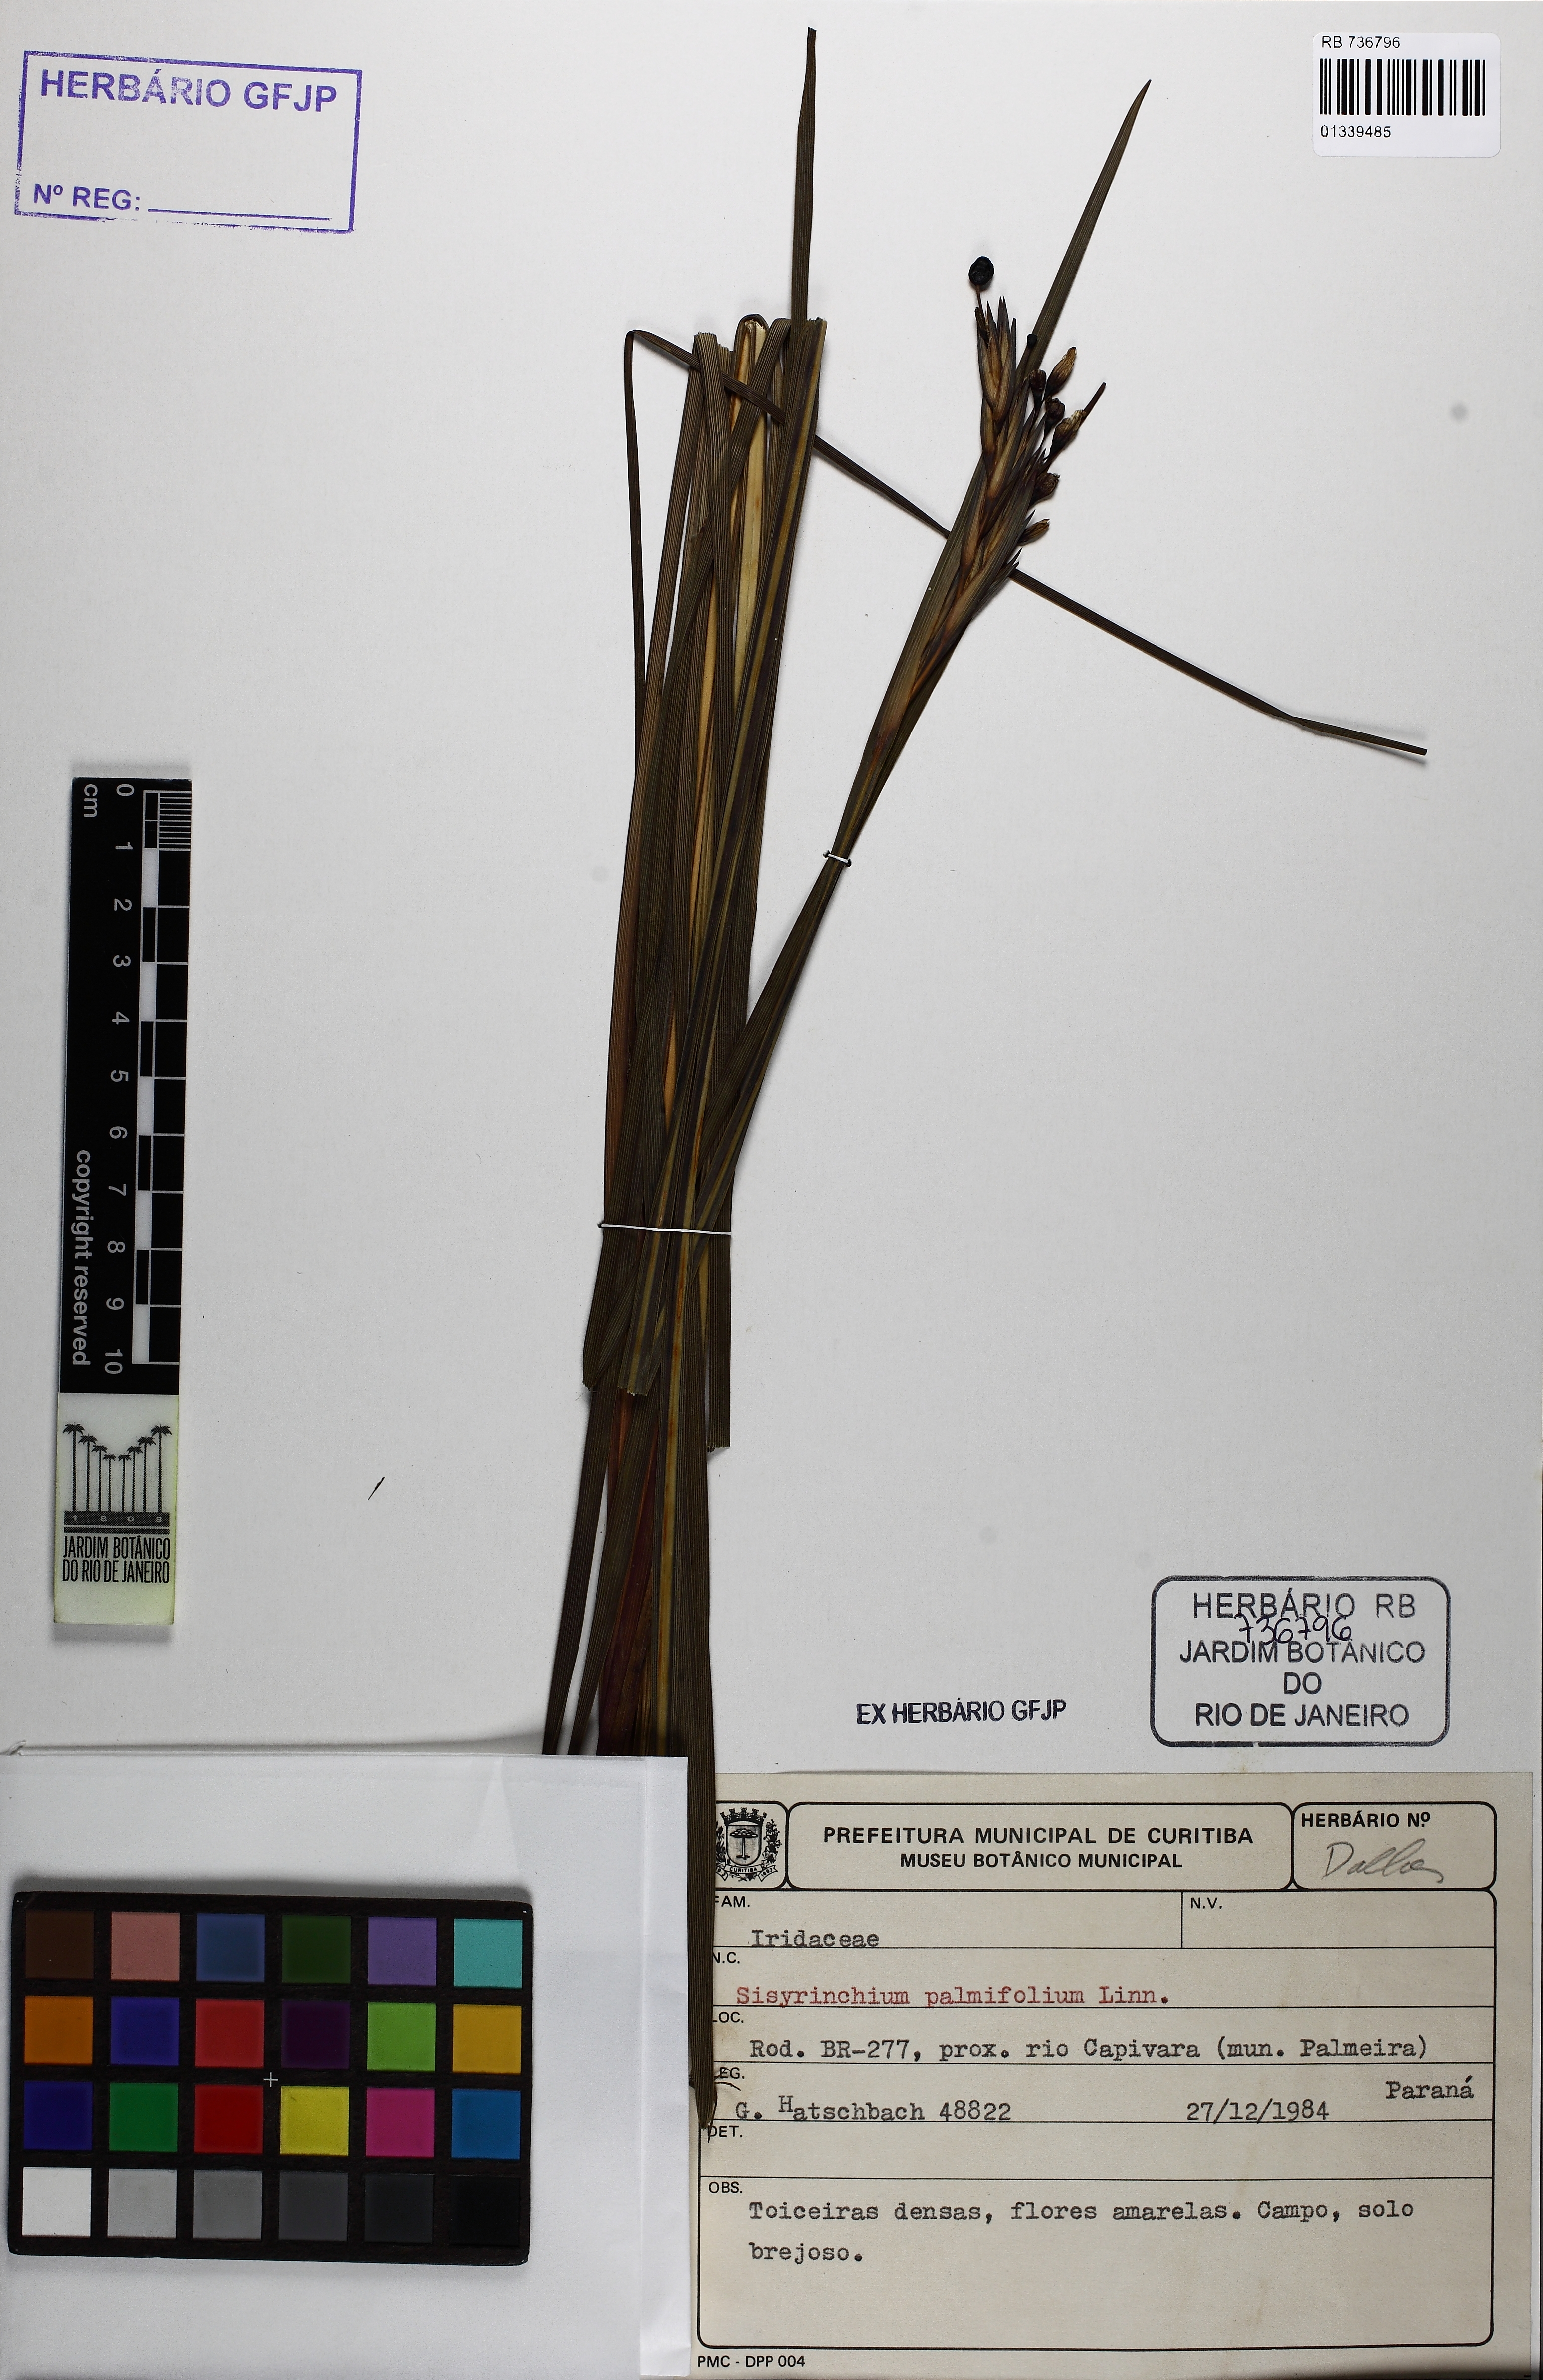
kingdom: Plantae
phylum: Tracheophyta
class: Liliopsida
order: Asparagales
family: Iridaceae
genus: Sisyrinchium
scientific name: Sisyrinchium palmifolium
